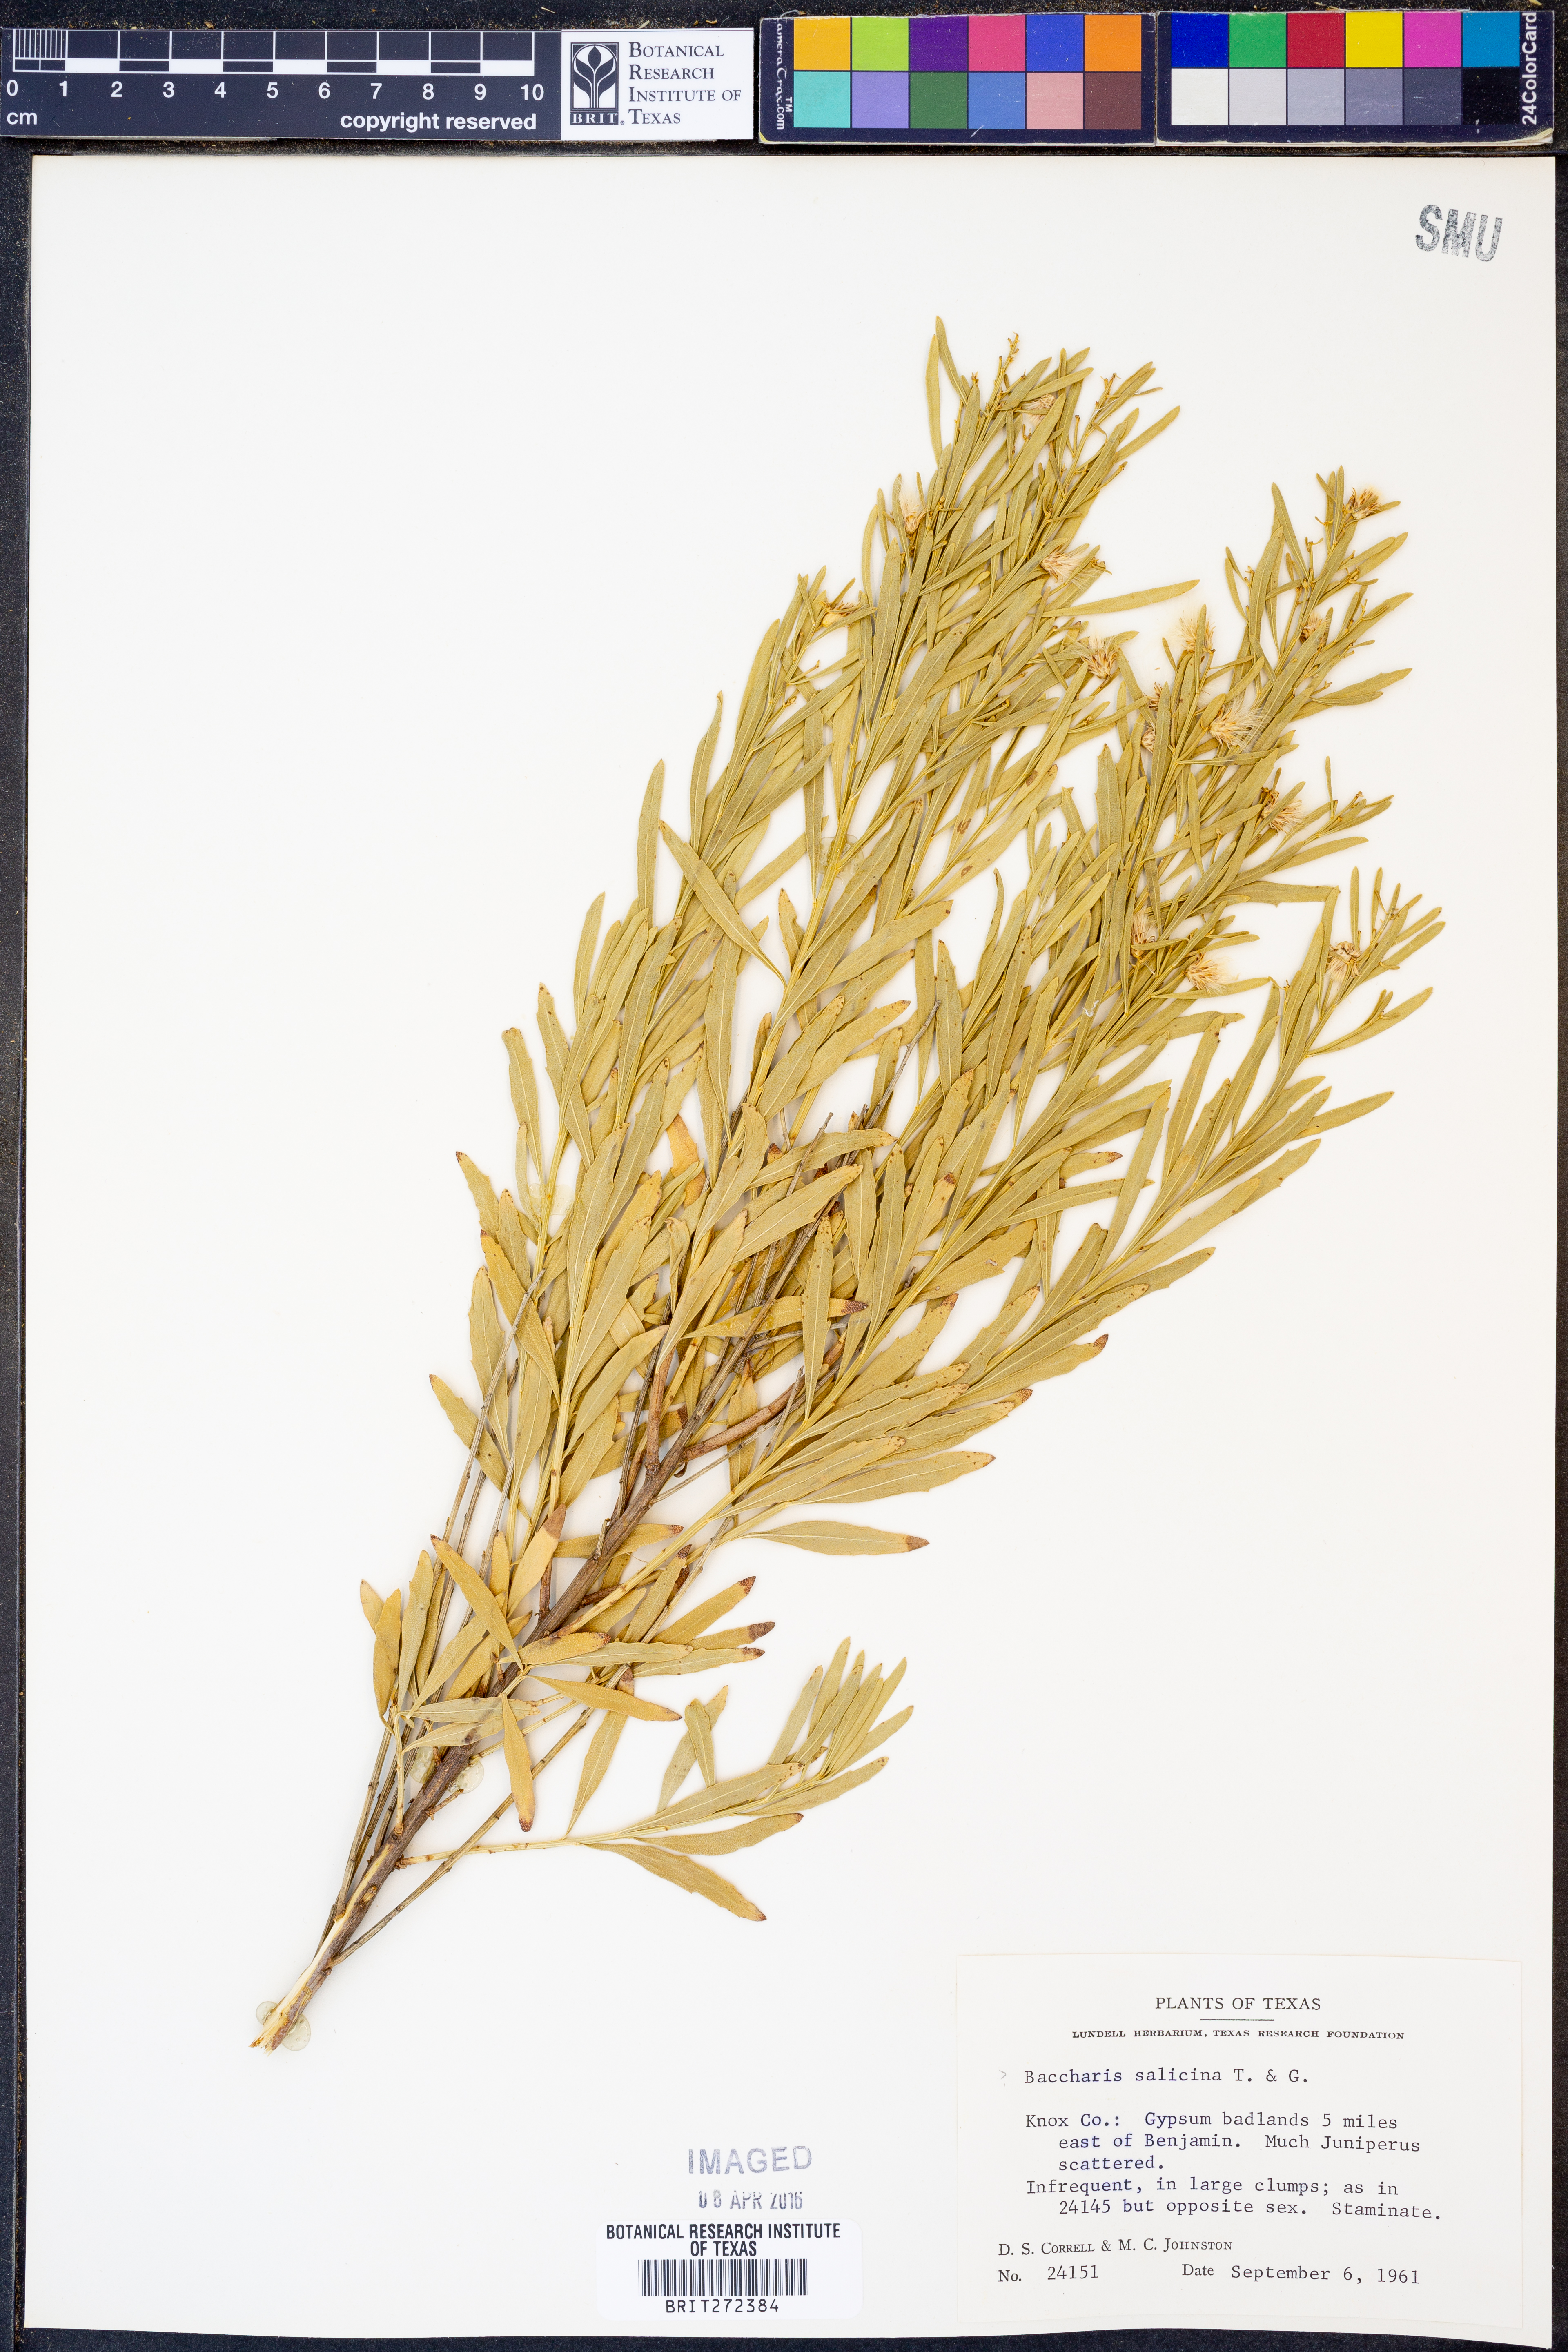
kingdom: Plantae
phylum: Tracheophyta
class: Magnoliopsida
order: Asterales
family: Asteraceae
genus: Baccharis
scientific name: Baccharis salicina
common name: Willow baccharis
